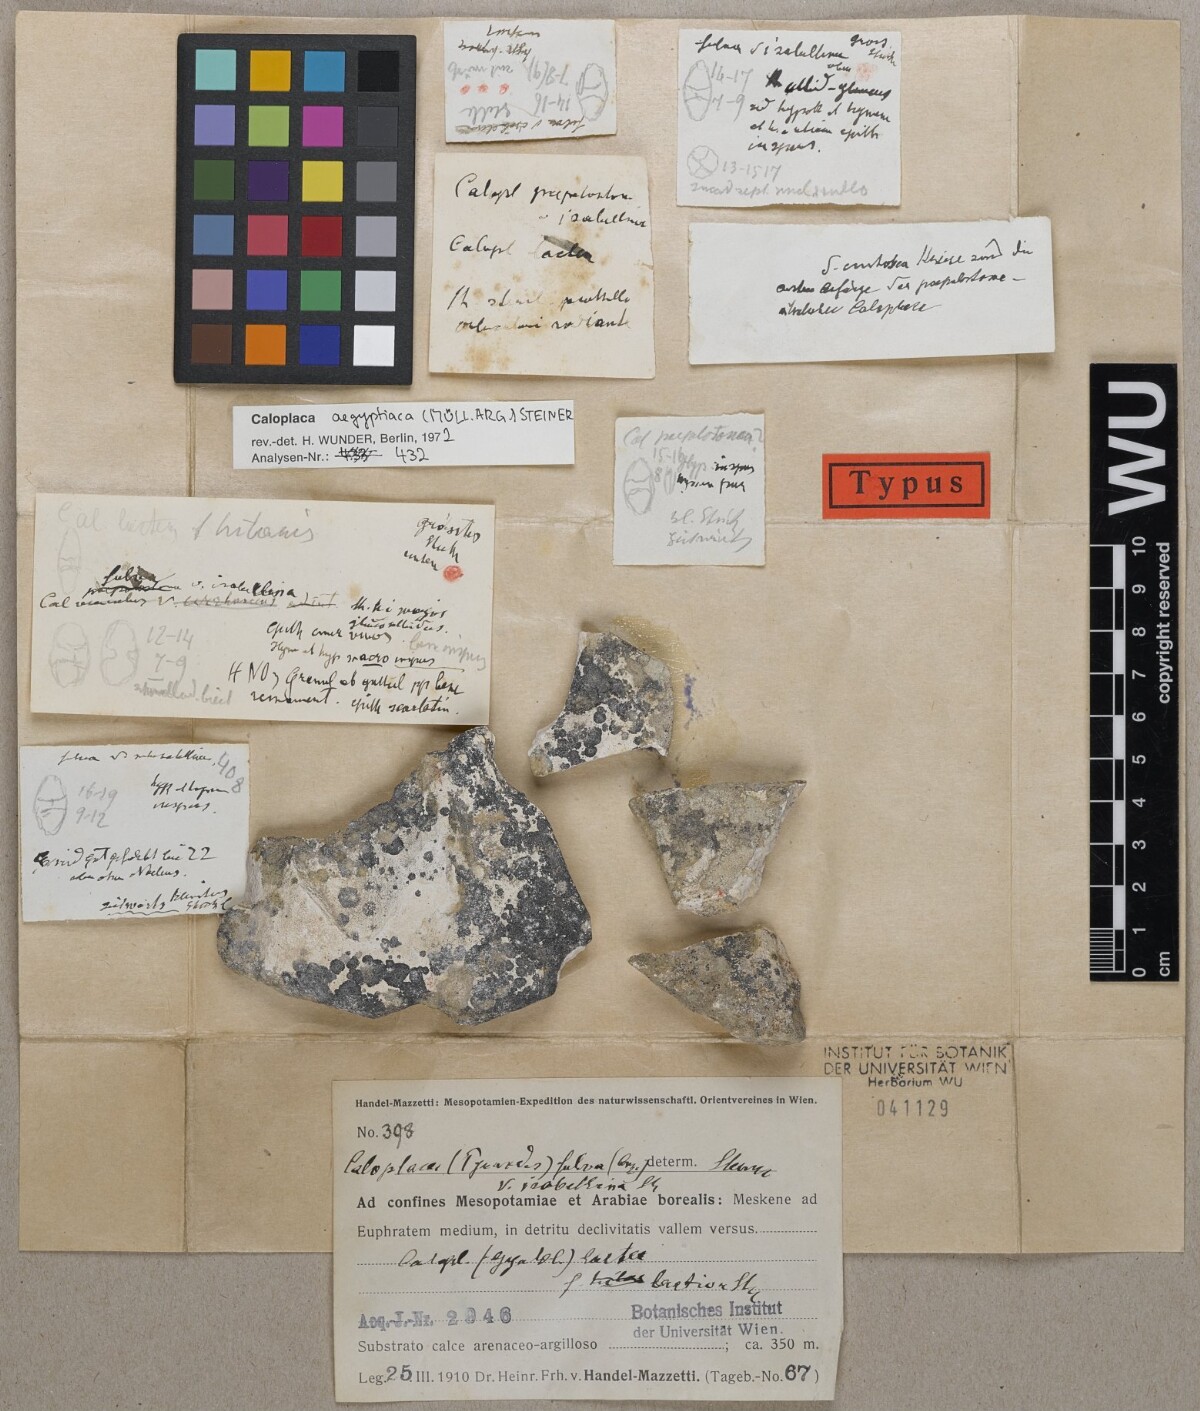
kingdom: Fungi
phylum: Ascomycota
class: Lecanoromycetes
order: Teloschistales
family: Teloschistaceae
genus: Caloplaca
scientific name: Caloplaca fulva
